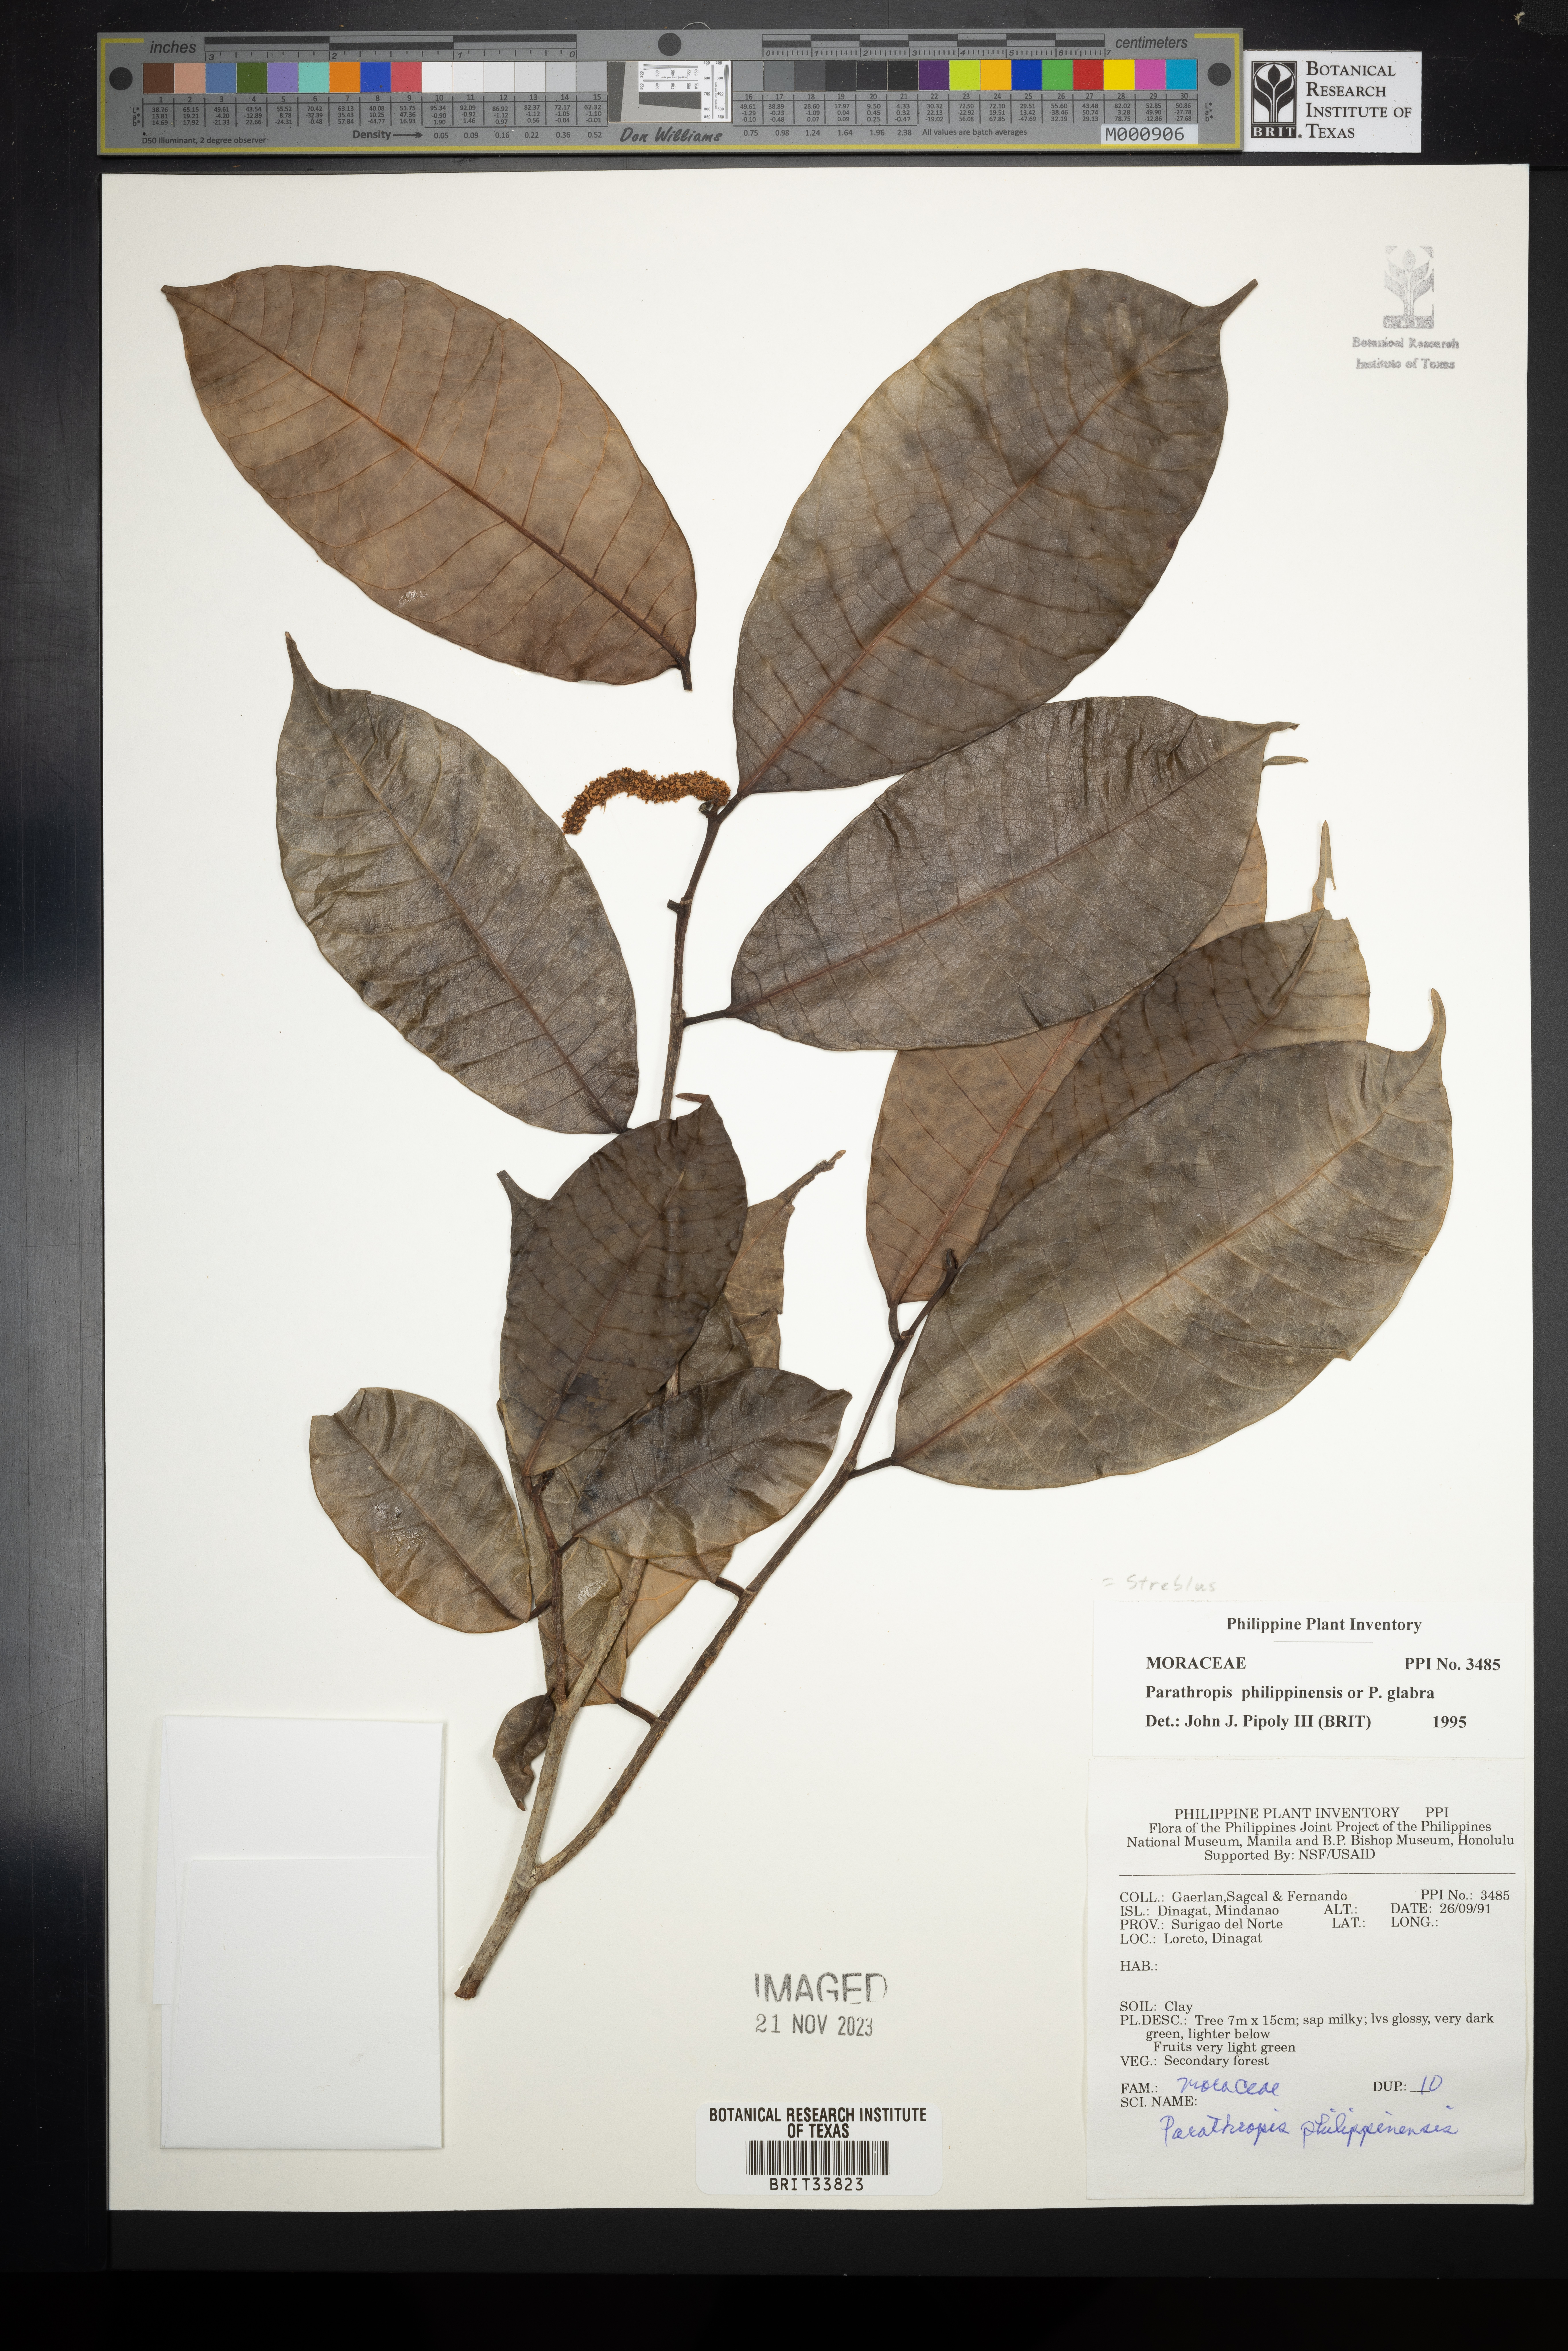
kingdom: Plantae
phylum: Tracheophyta
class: Magnoliopsida
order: Rosales
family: Moraceae
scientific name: Moraceae
